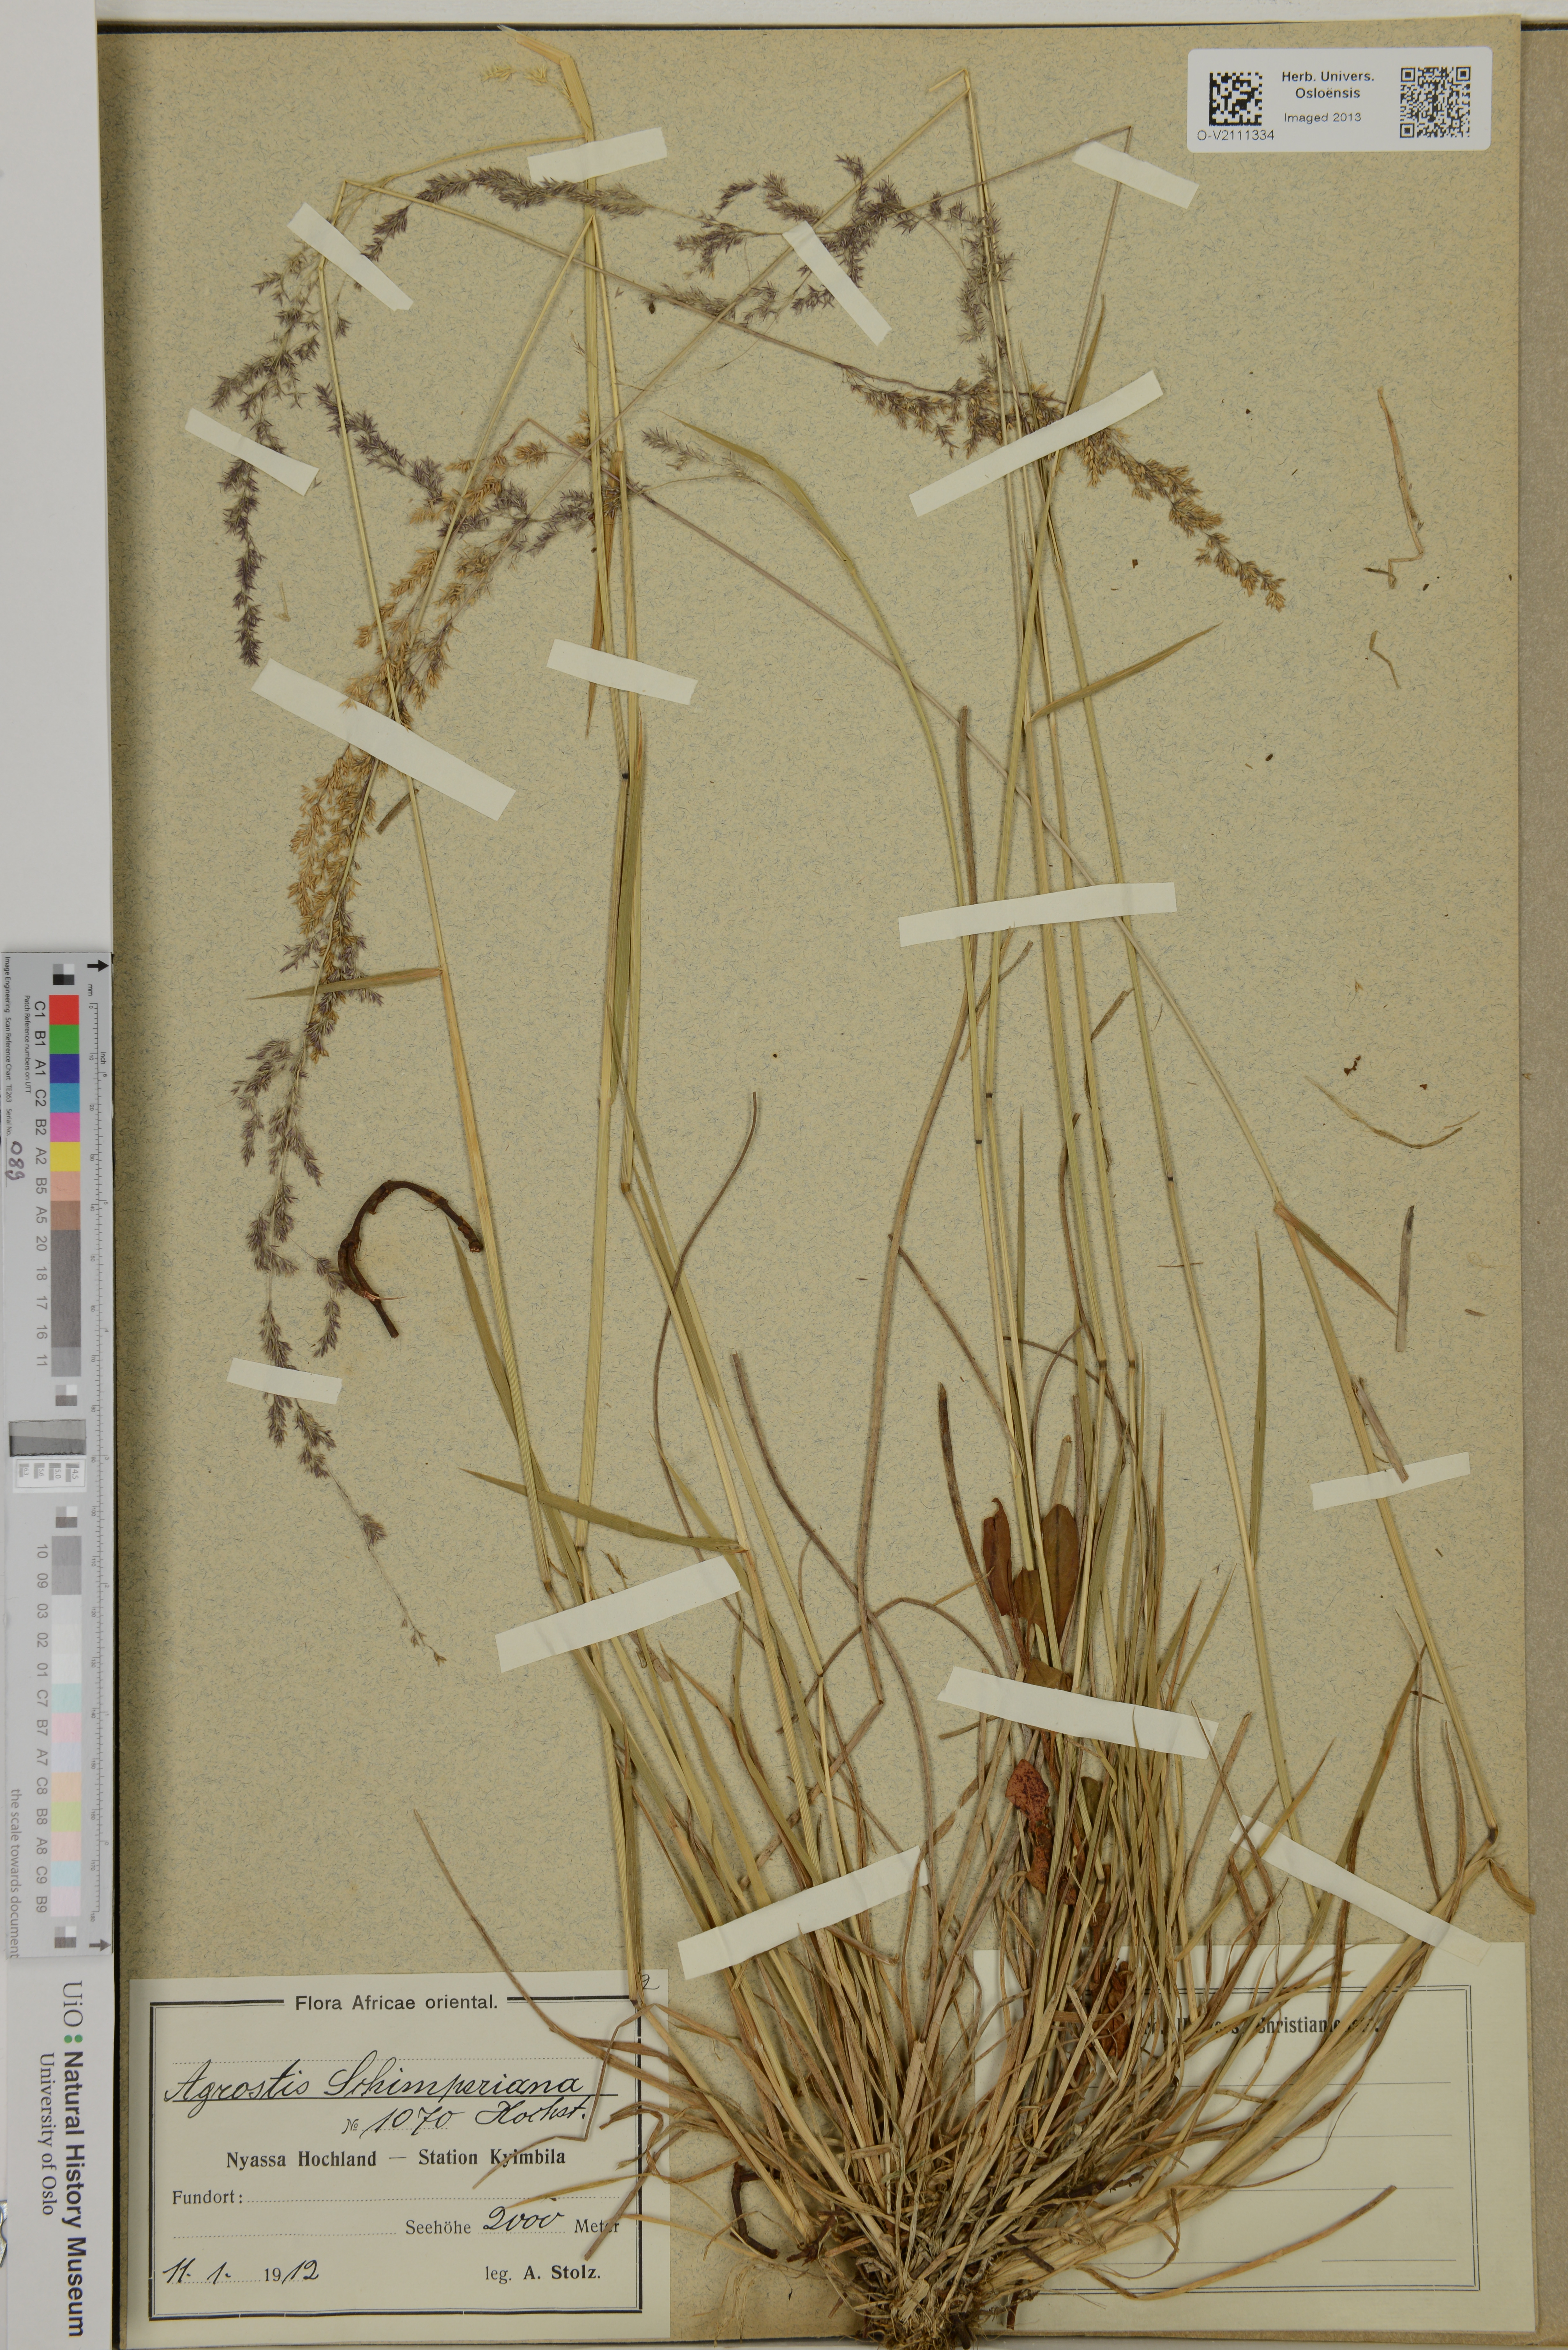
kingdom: Plantae
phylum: Tracheophyta
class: Liliopsida
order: Poales
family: Poaceae
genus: Polypogon
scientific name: Polypogon schimperianus
